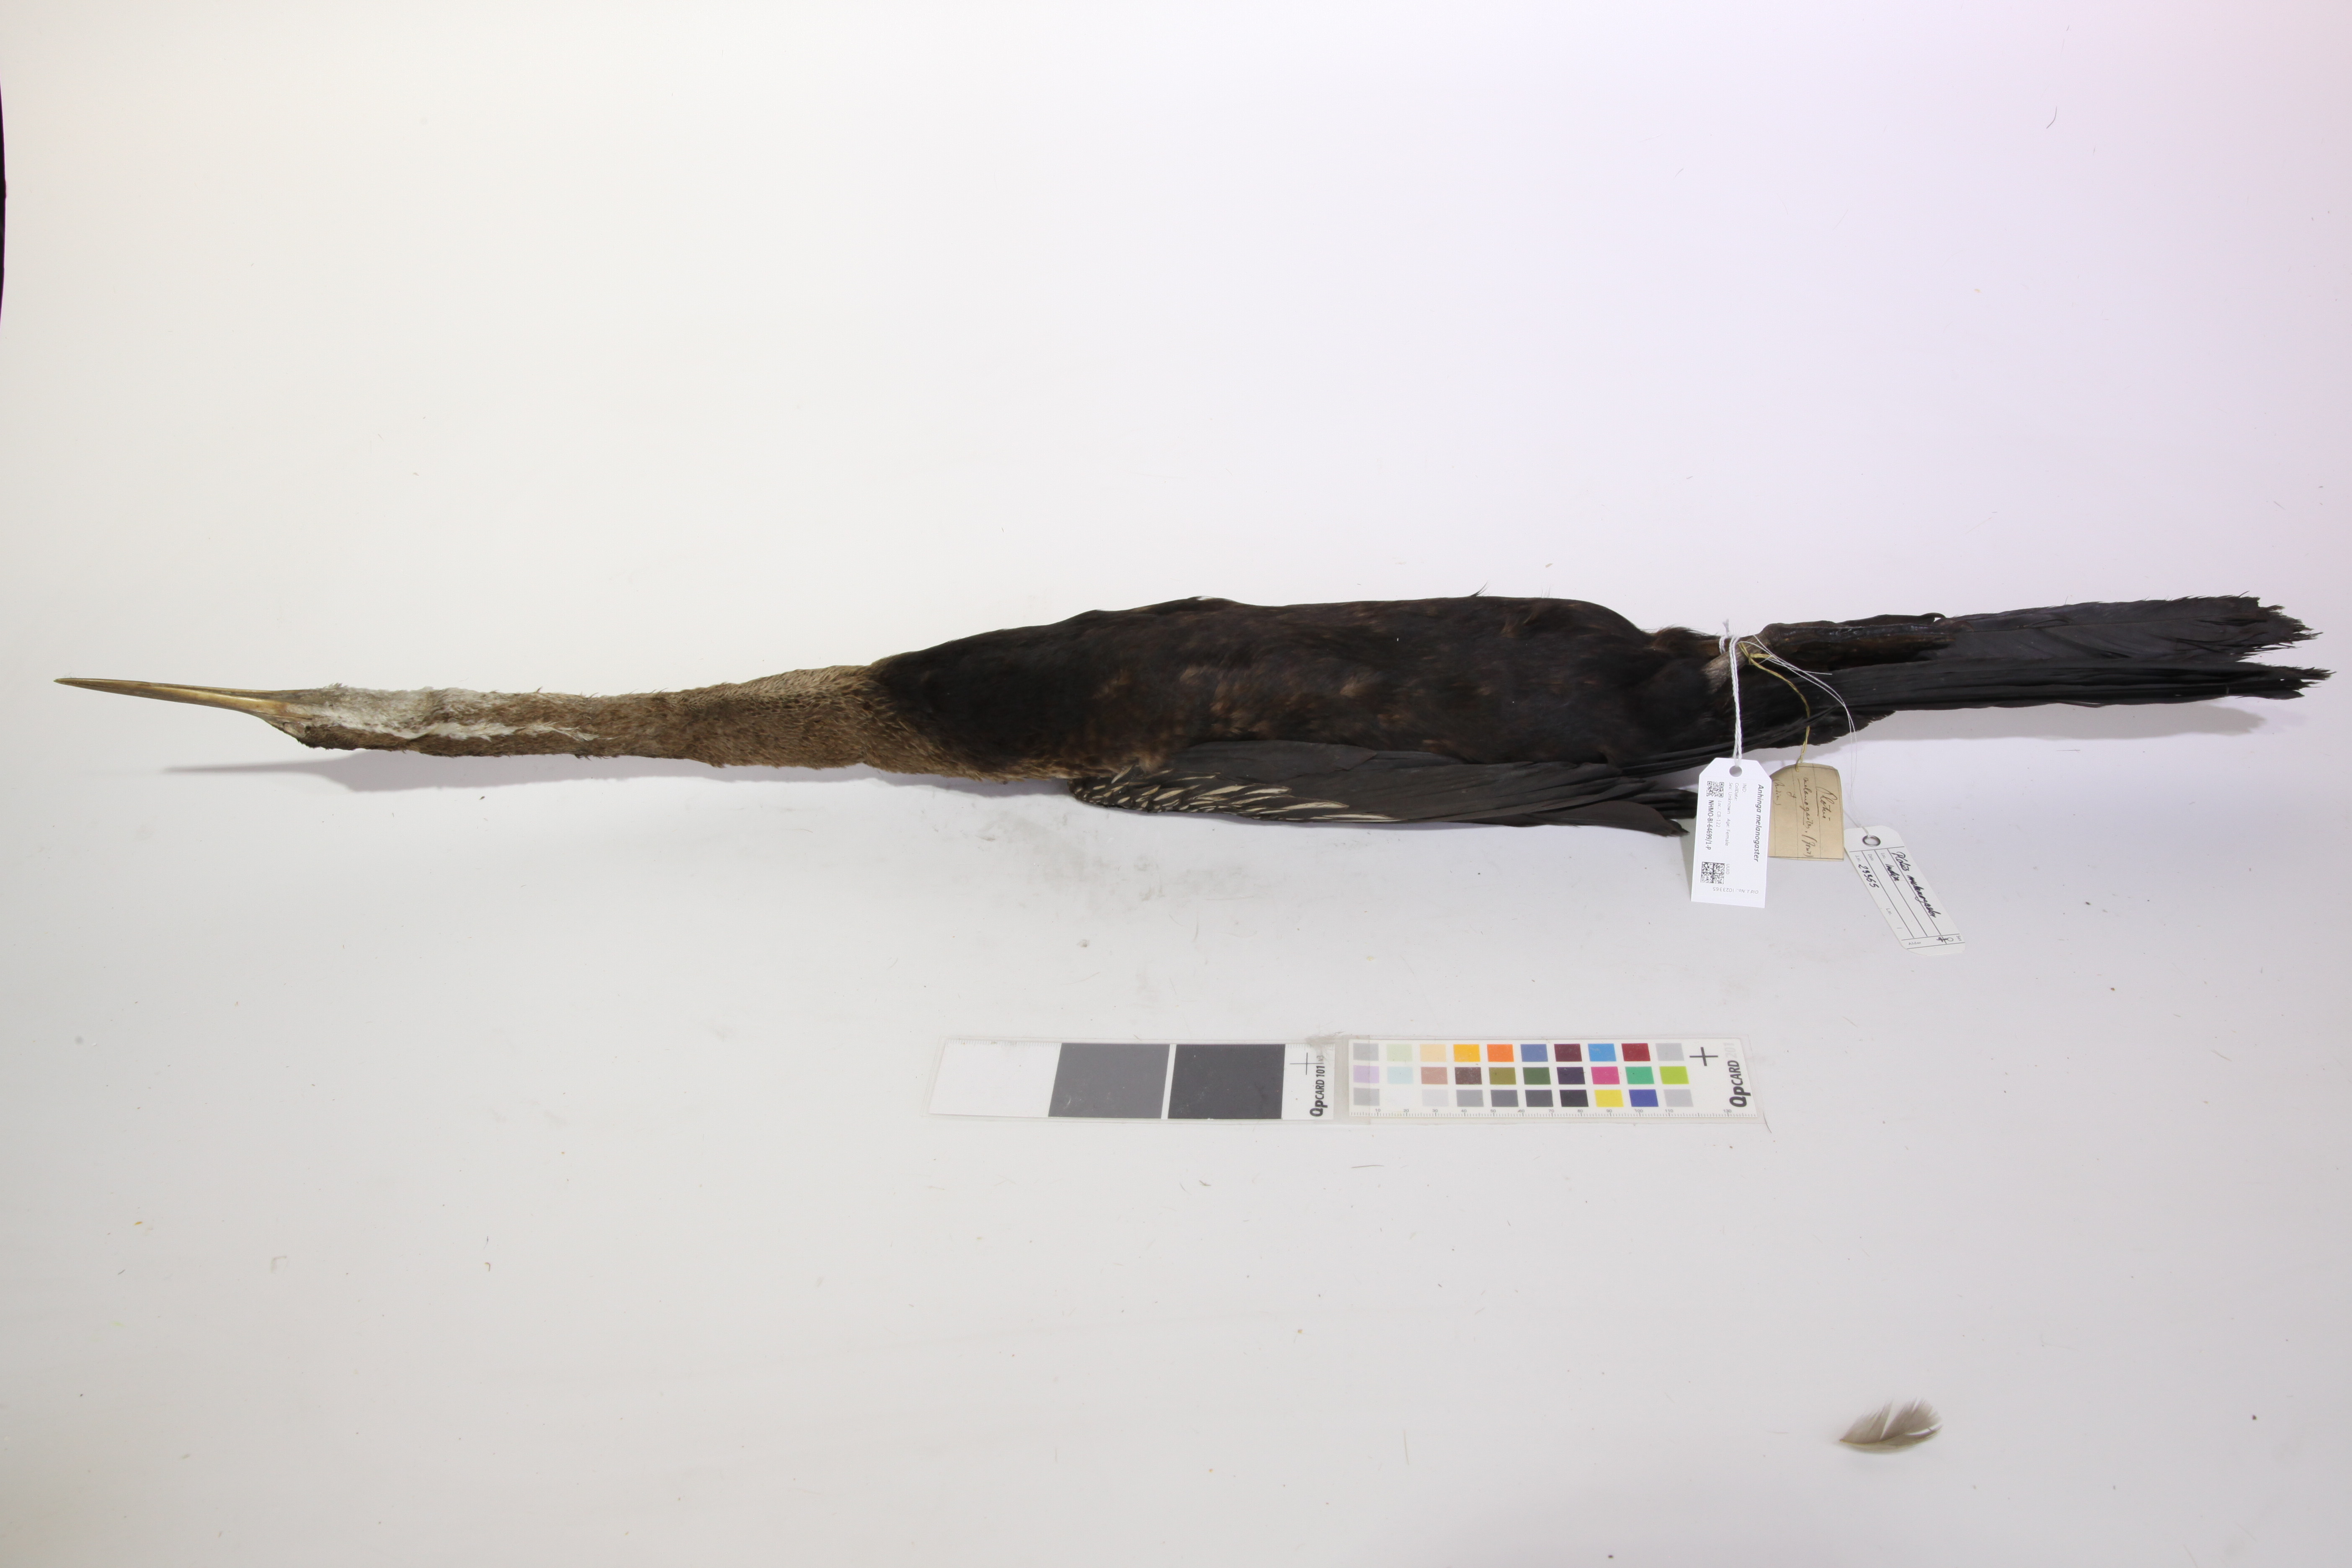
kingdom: Animalia
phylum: Chordata
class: Aves
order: Suliformes
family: Anhingidae
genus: Anhinga
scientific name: Anhinga melanogaster
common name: Oriental darter
